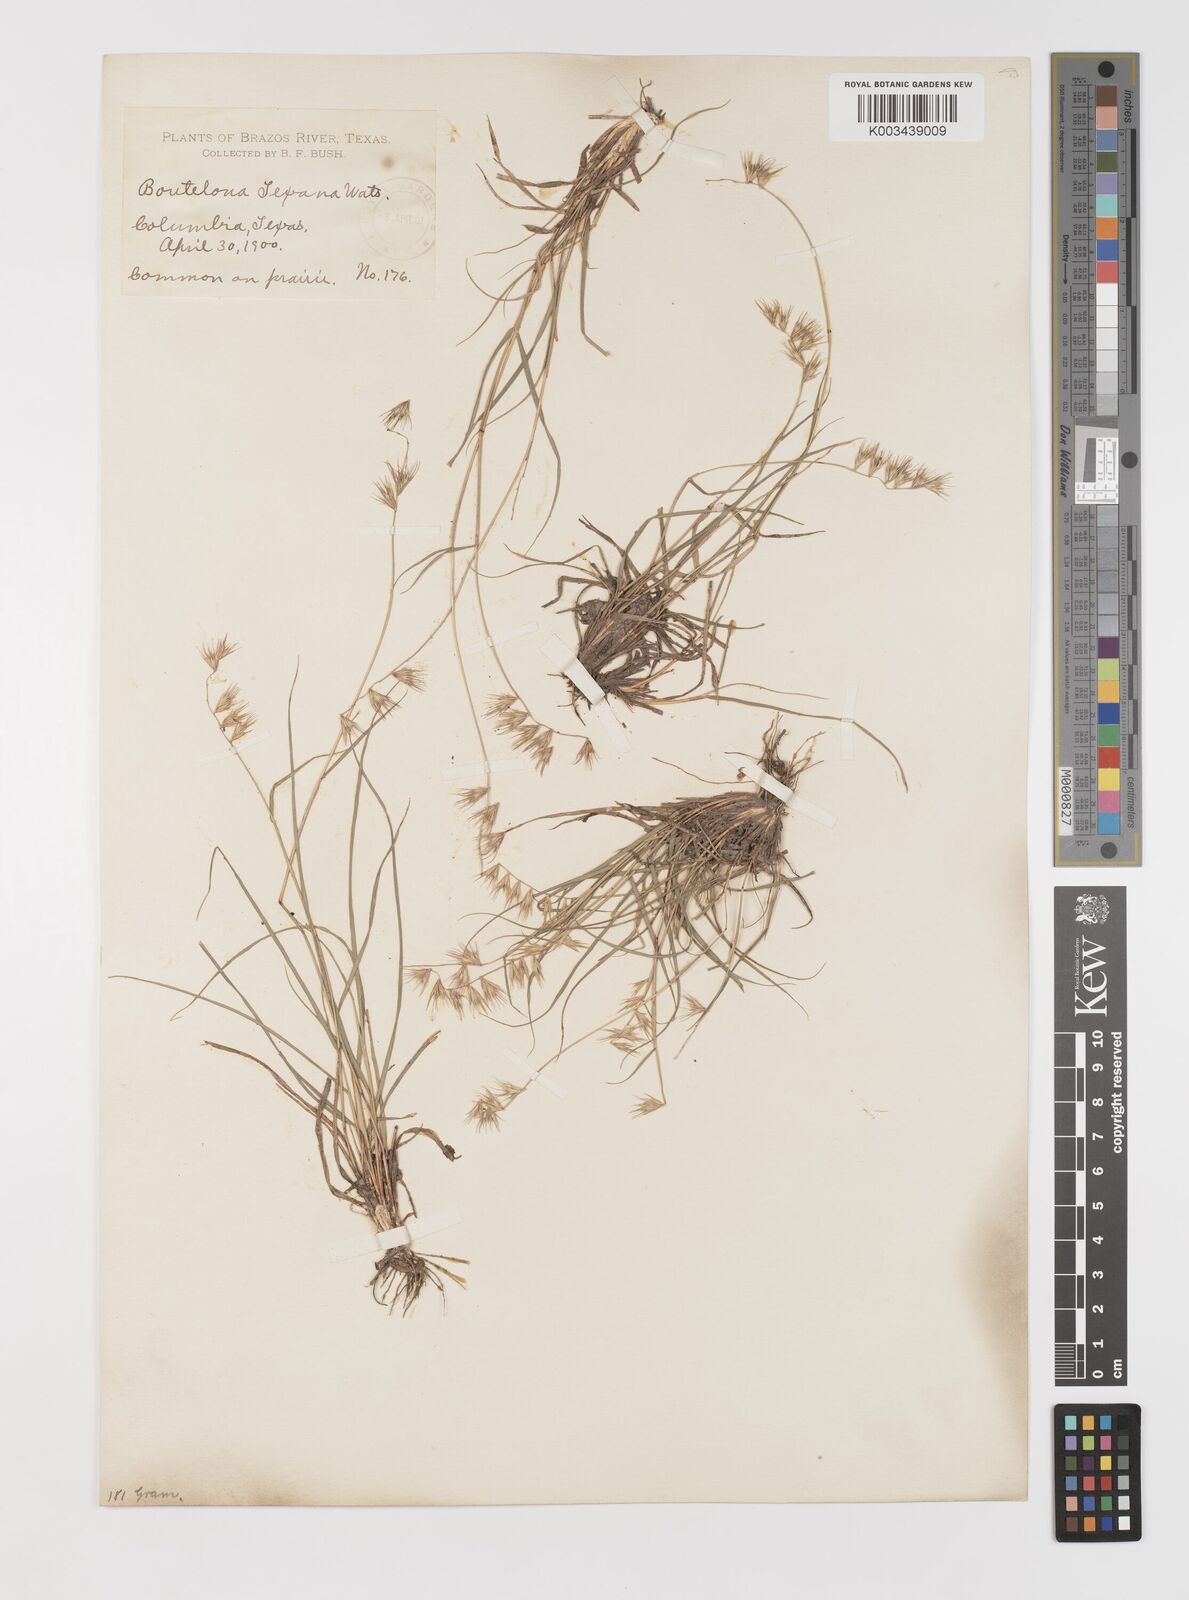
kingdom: Plantae
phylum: Tracheophyta
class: Liliopsida
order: Poales
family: Poaceae
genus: Bouteloua
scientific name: Bouteloua rigidiseta
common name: Texas grama
